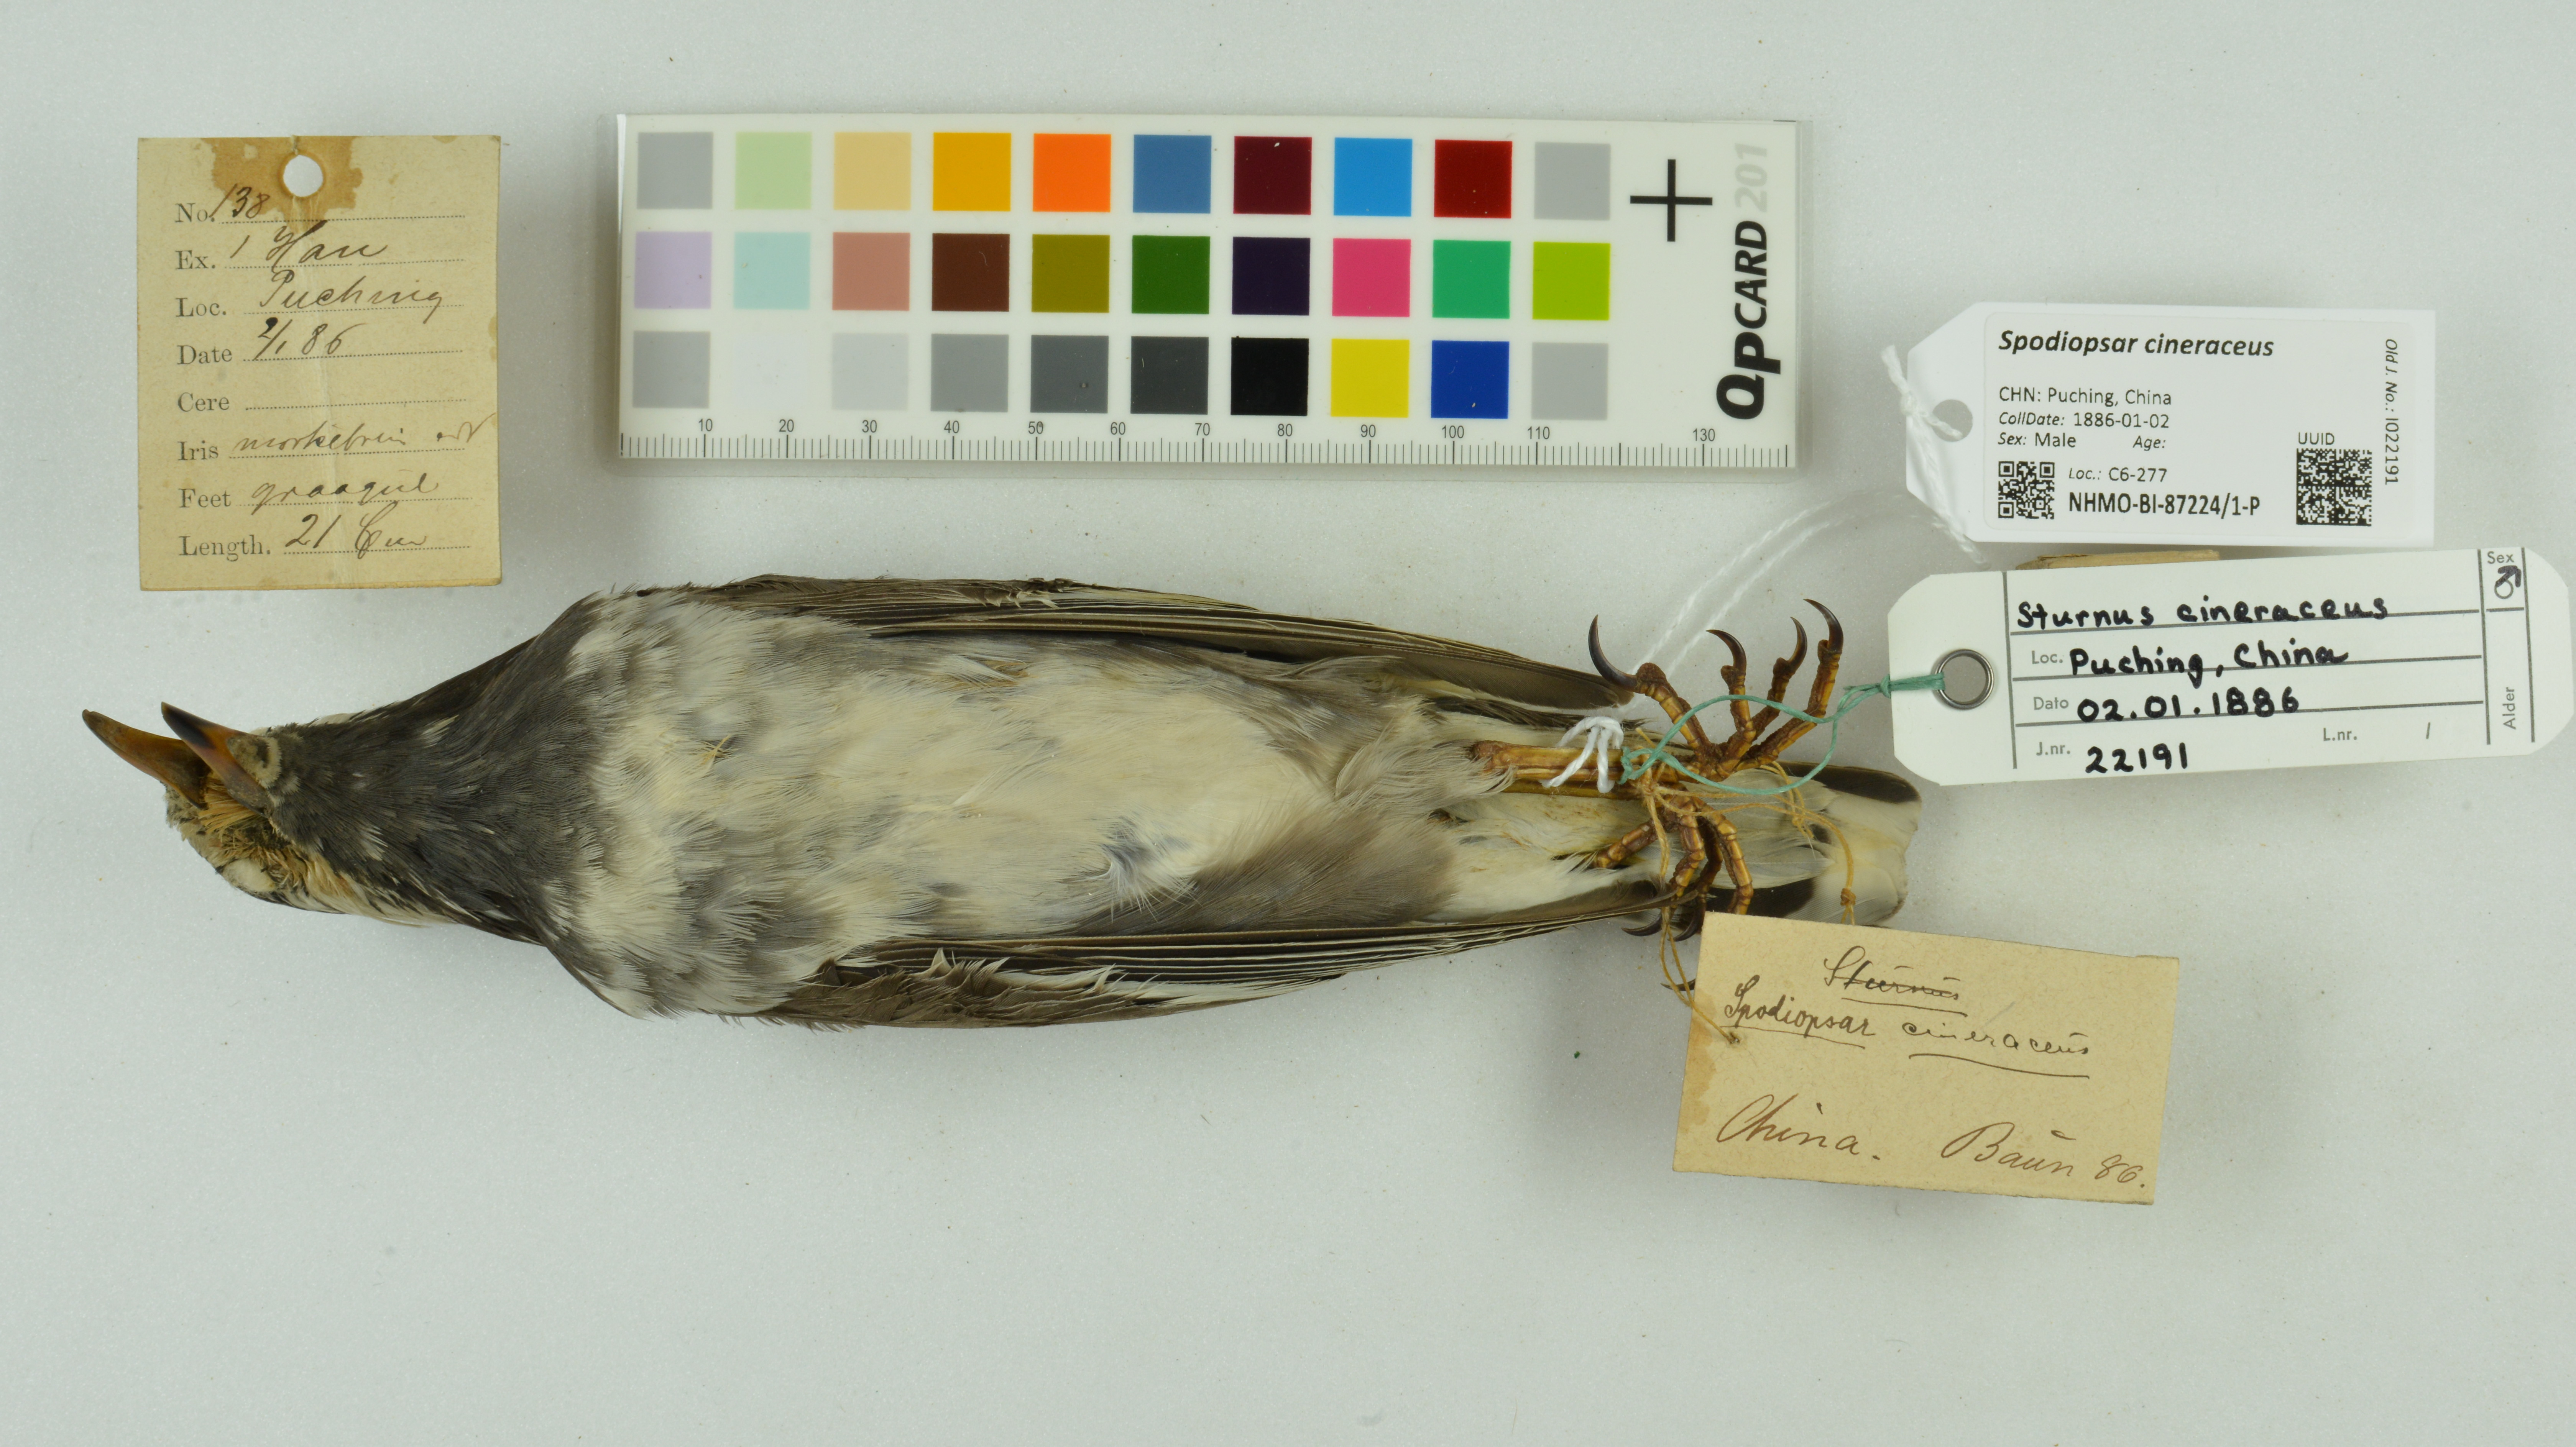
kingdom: Animalia
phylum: Chordata
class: Aves
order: Passeriformes
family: Sturnidae
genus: Spodiopsar
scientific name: Spodiopsar cineraceus
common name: White-cheeked starling
